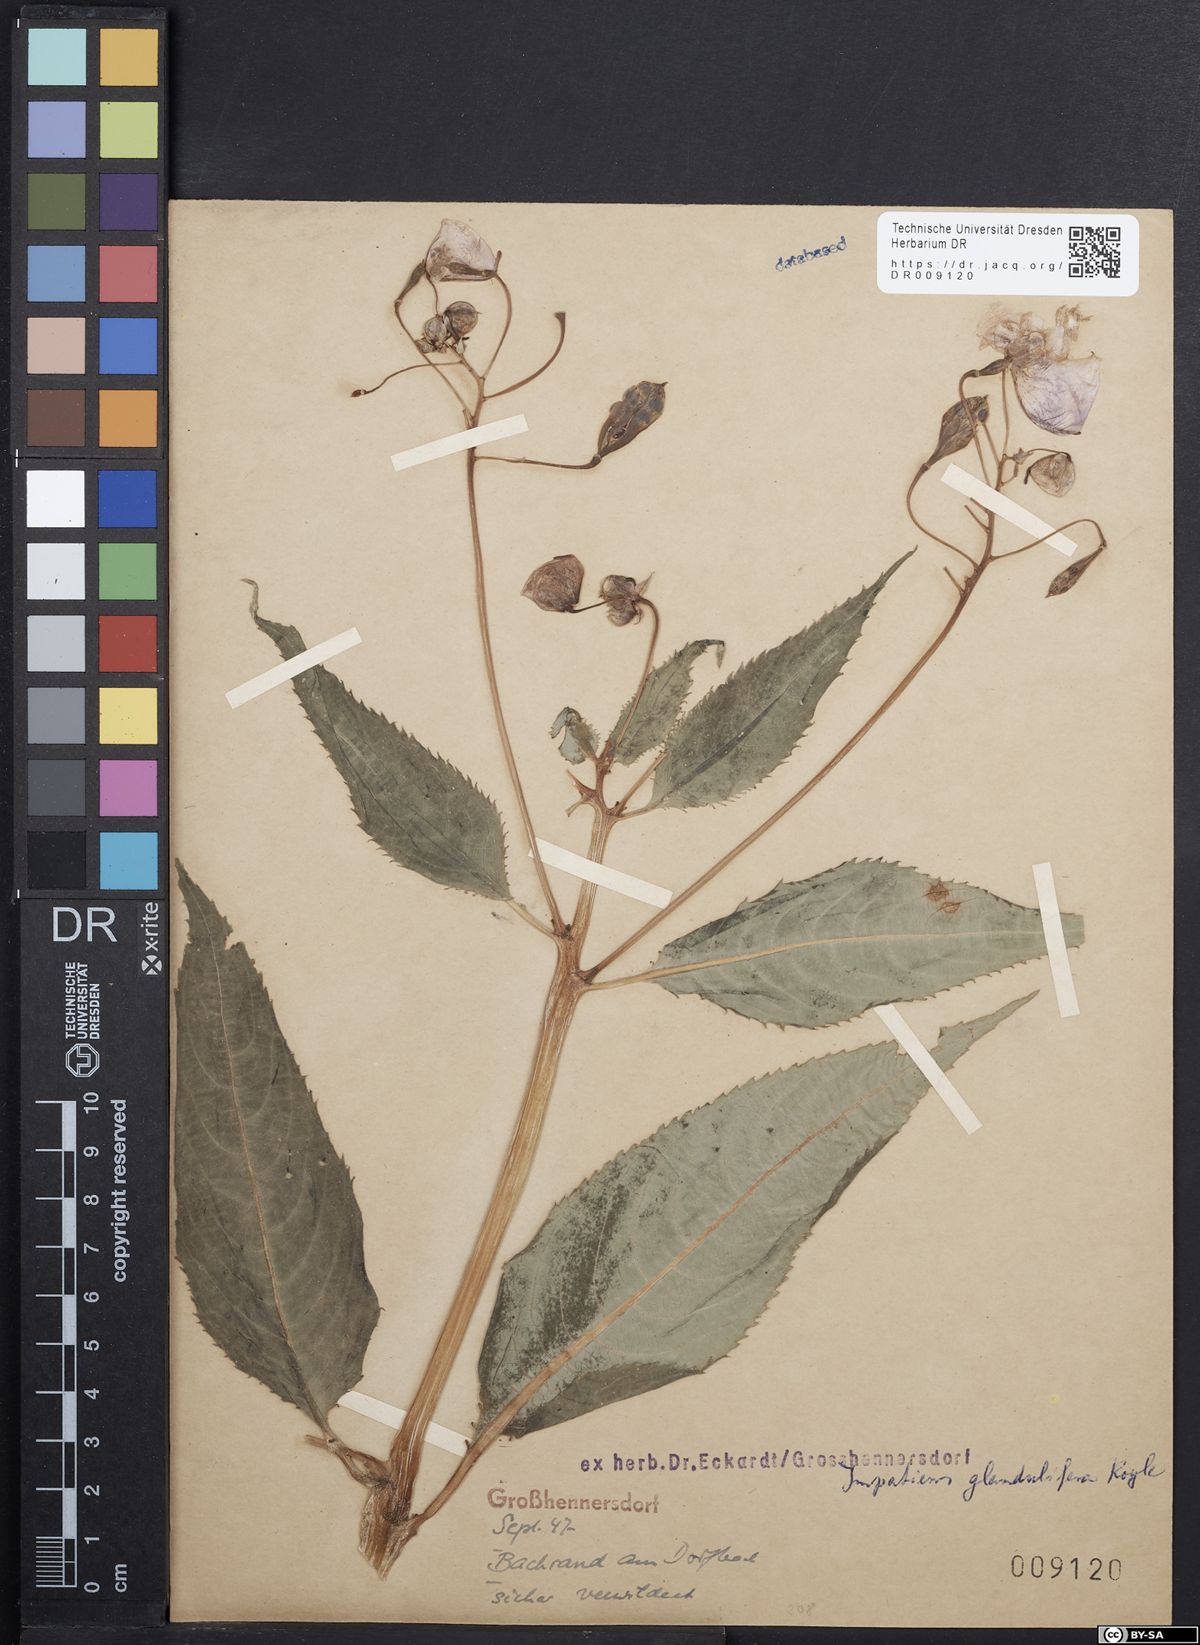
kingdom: Plantae
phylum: Tracheophyta
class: Magnoliopsida
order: Ericales
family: Balsaminaceae
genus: Impatiens
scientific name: Impatiens glandulifera
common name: Himalayan balsam
